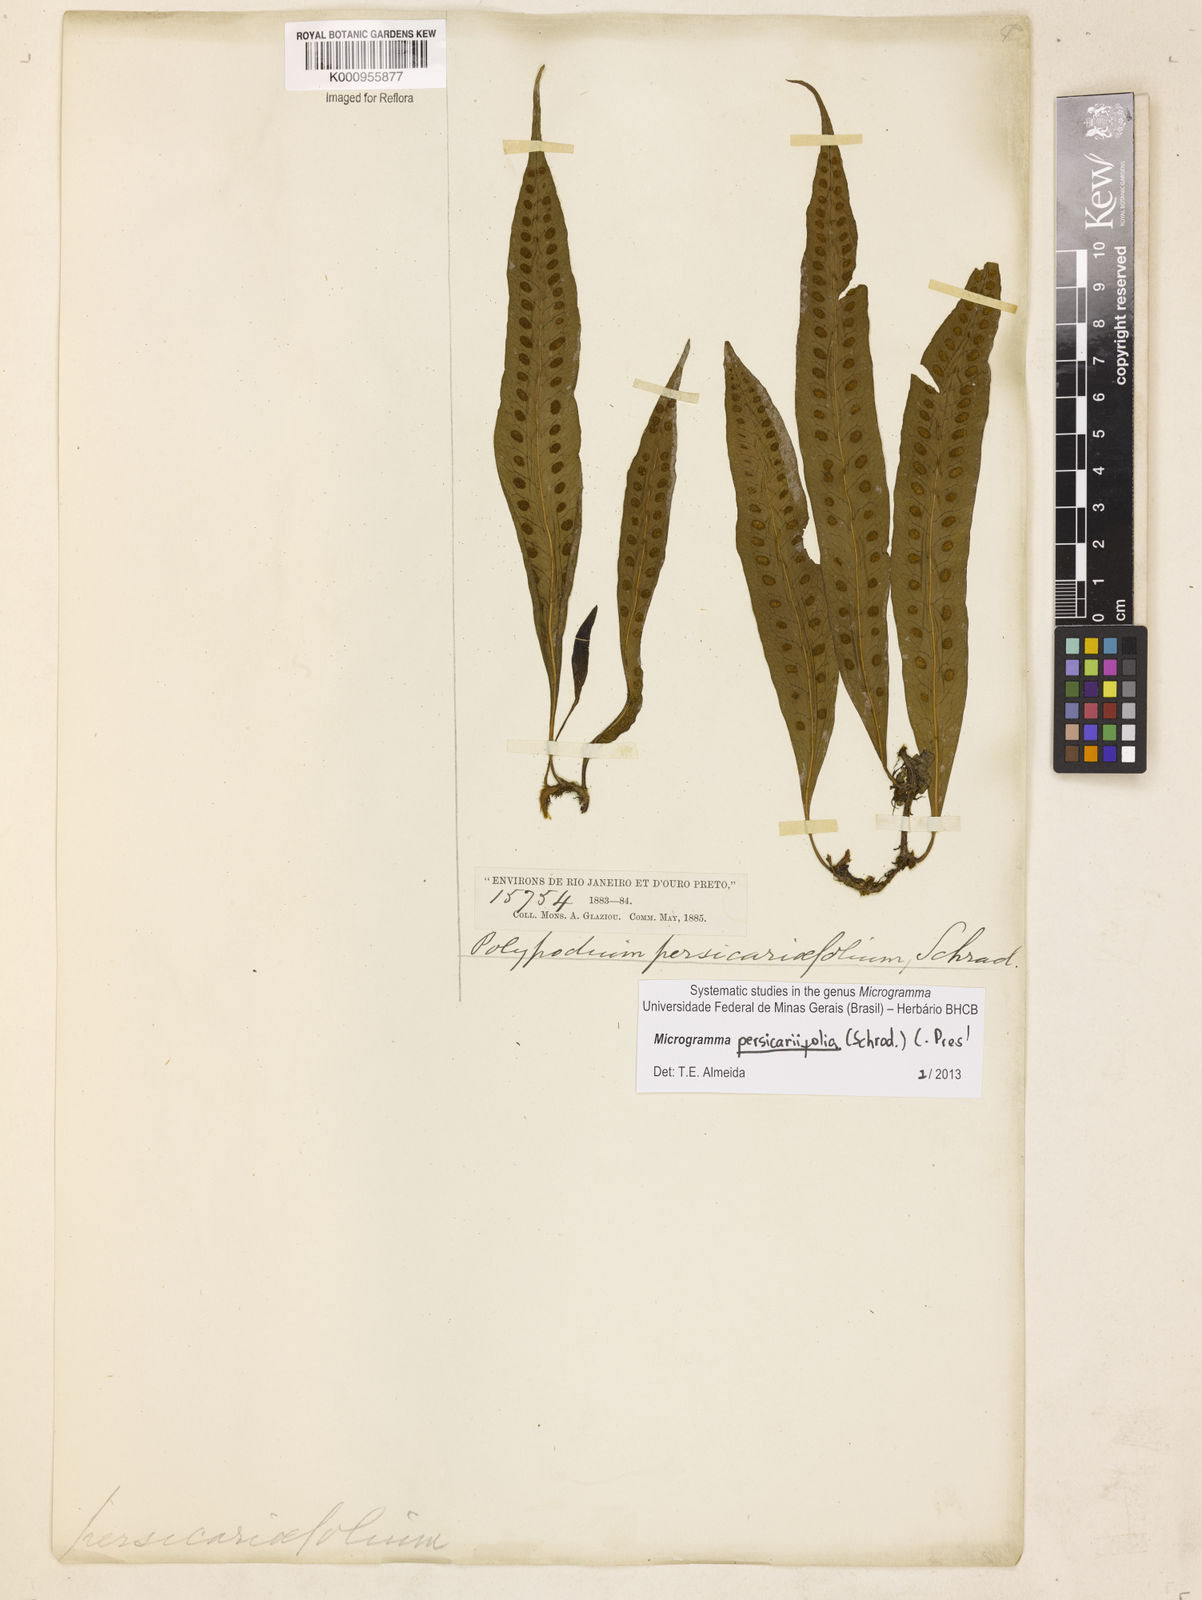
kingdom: Plantae
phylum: Tracheophyta
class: Polypodiopsida
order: Polypodiales
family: Polypodiaceae
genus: Microgramma
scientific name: Microgramma persicariifolia
